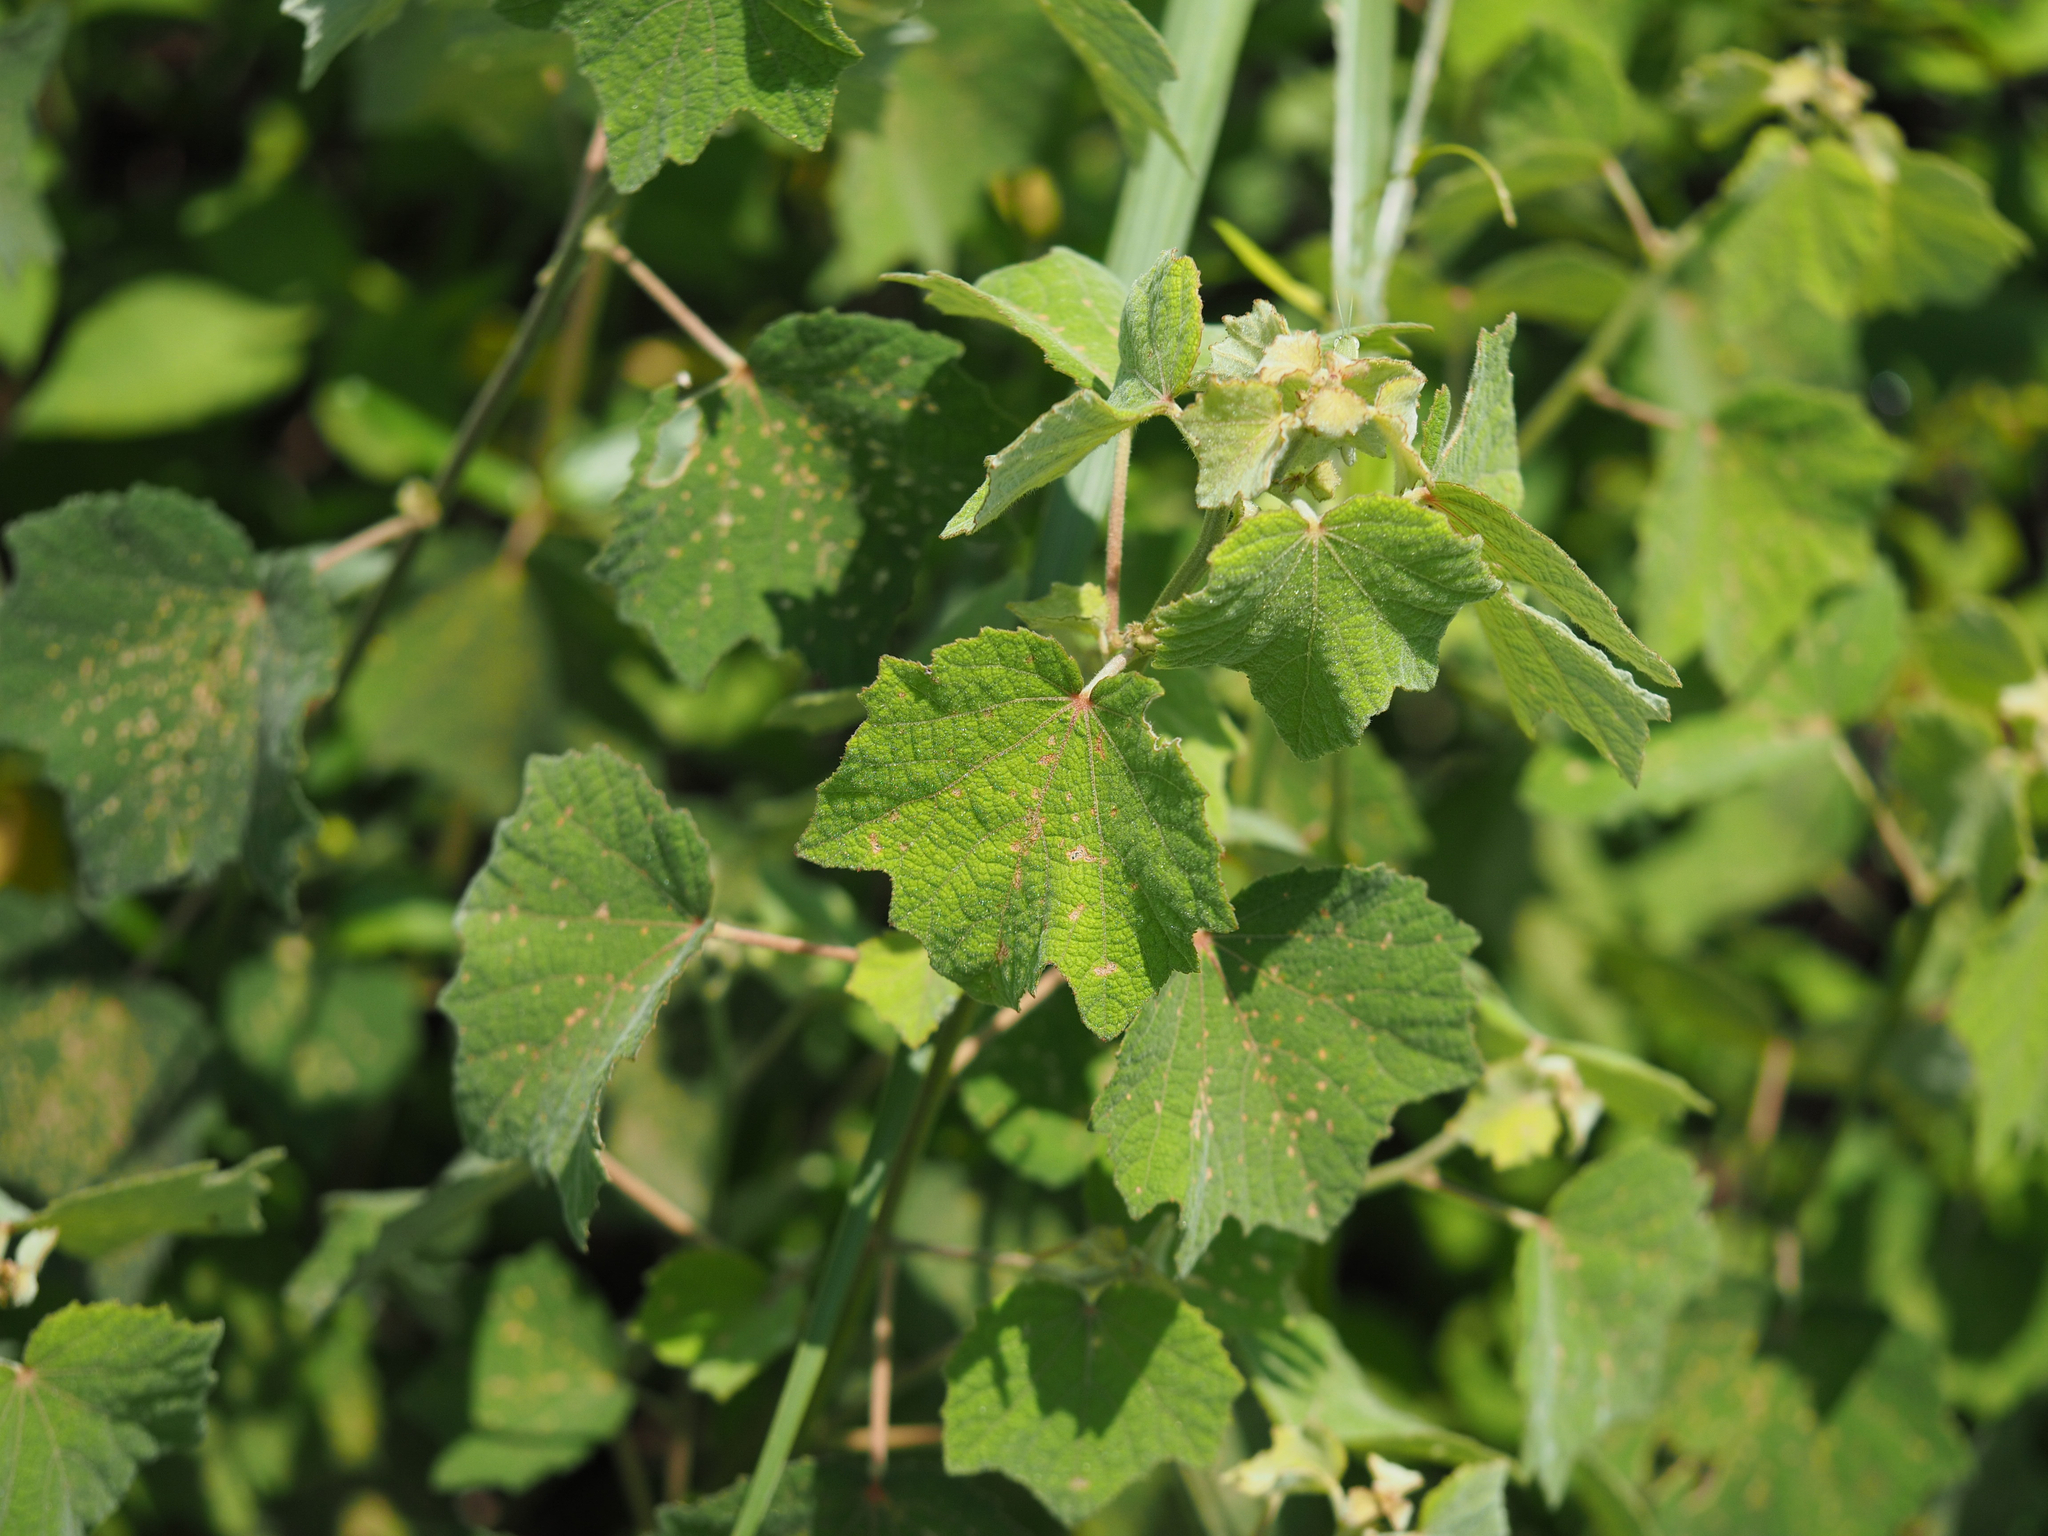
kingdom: Plantae
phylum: Tracheophyta
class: Magnoliopsida
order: Malvales
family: Malvaceae
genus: Urena
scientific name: Urena lobata
